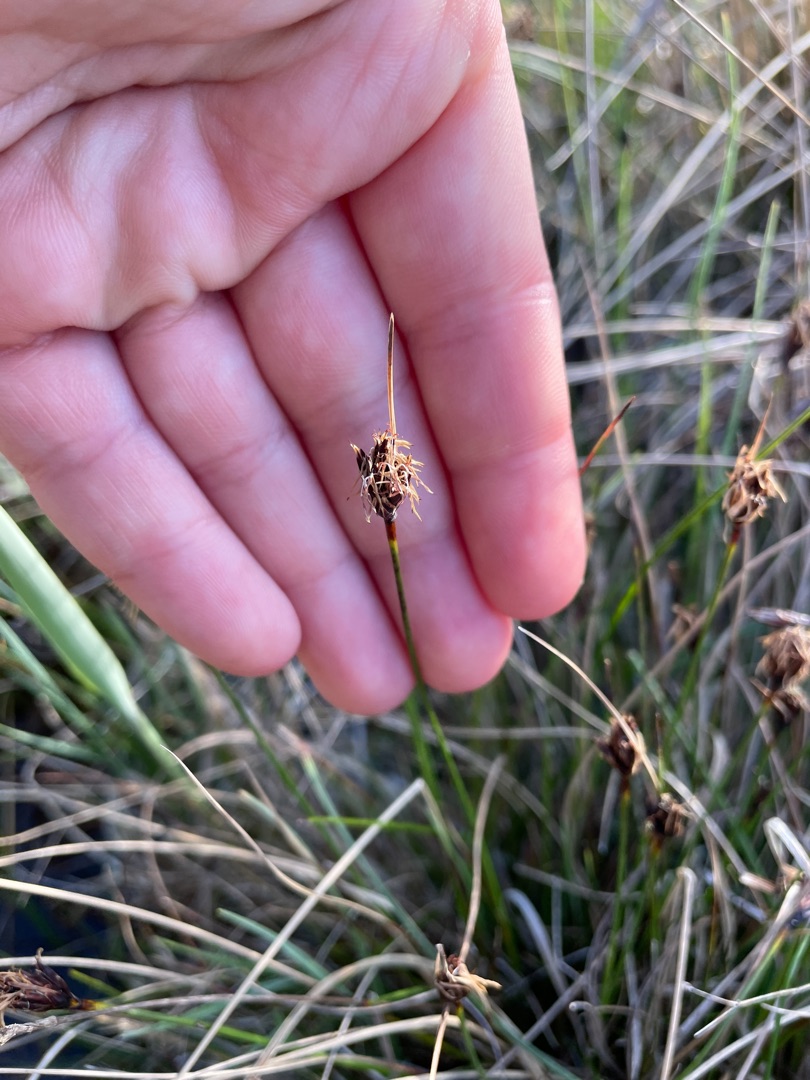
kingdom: Plantae
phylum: Tracheophyta
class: Liliopsida
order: Poales
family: Cyperaceae
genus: Schoenus
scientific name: Schoenus nigricans
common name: Sort skæne
